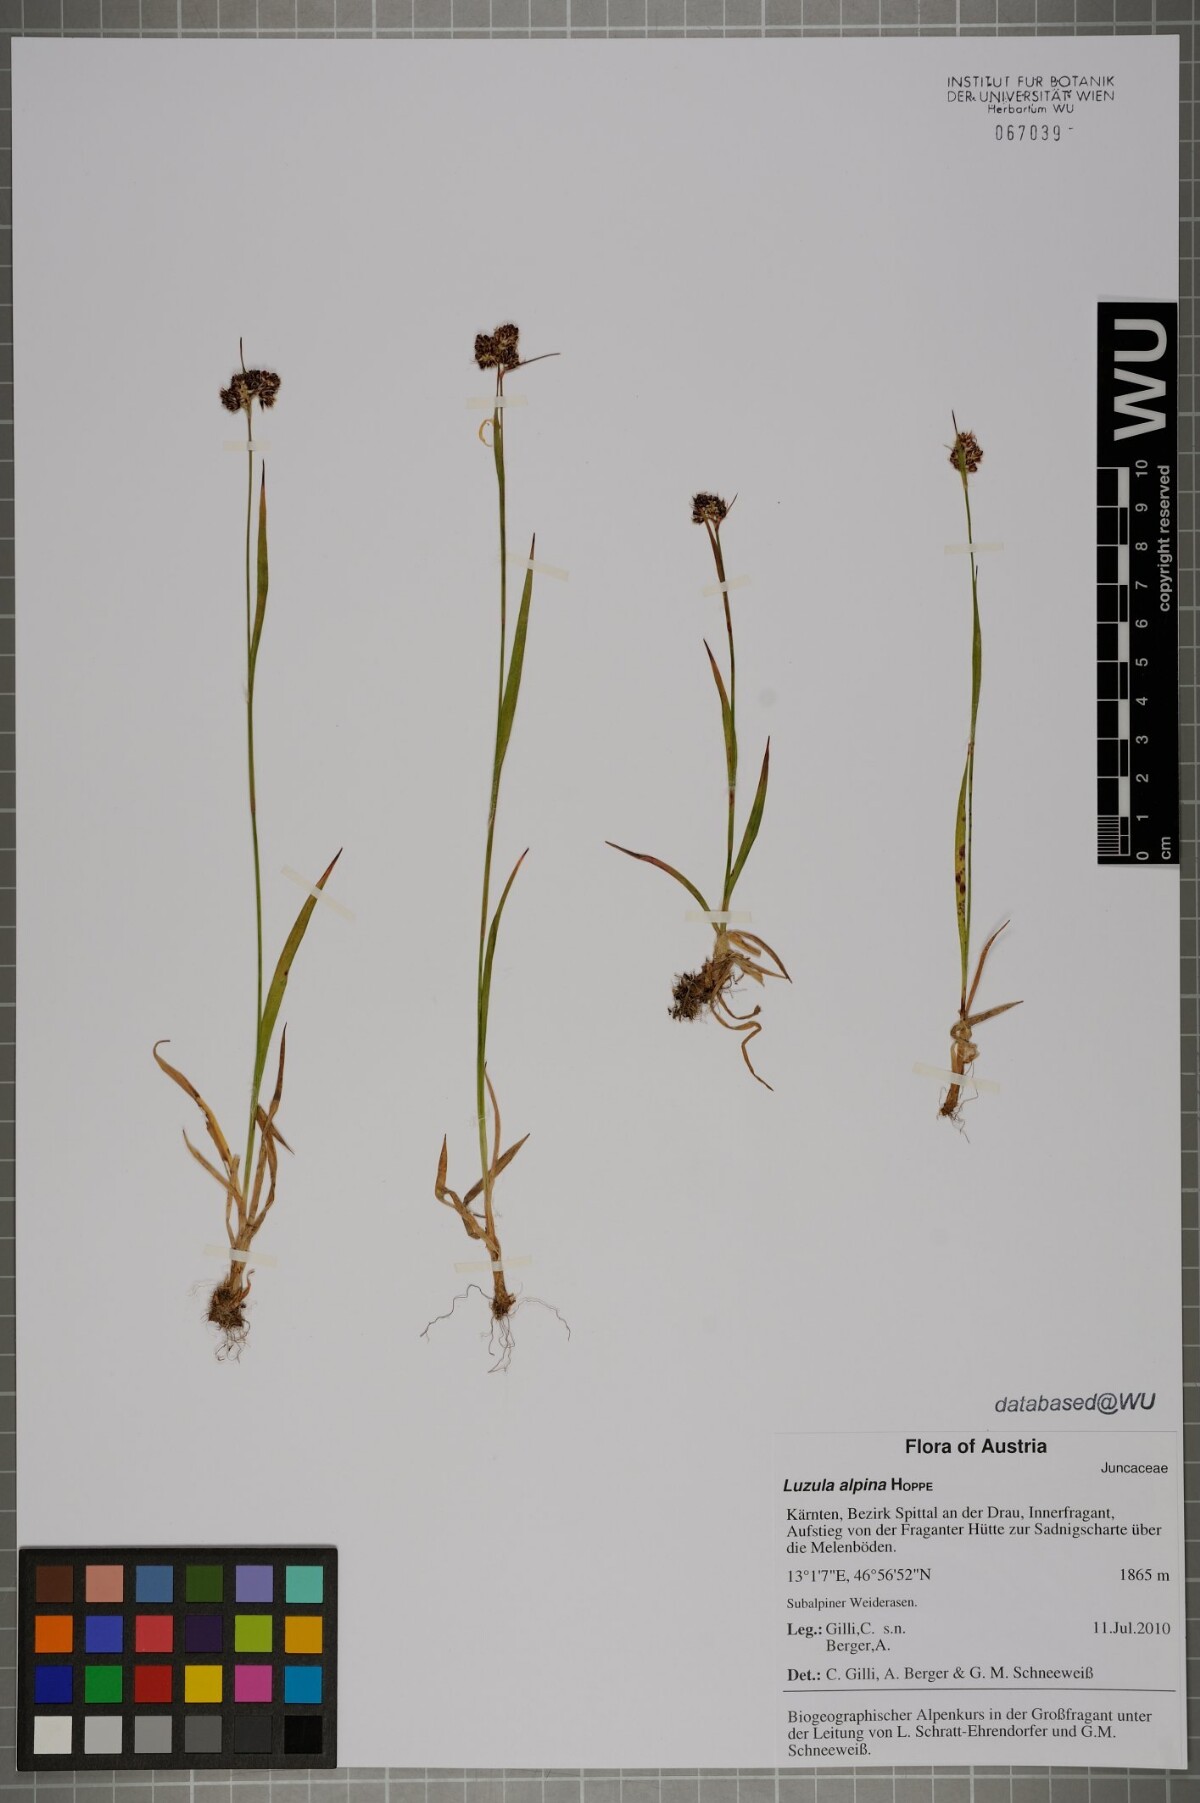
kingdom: Plantae
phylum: Tracheophyta
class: Liliopsida
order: Poales
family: Juncaceae
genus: Luzula
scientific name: Luzula alpina
